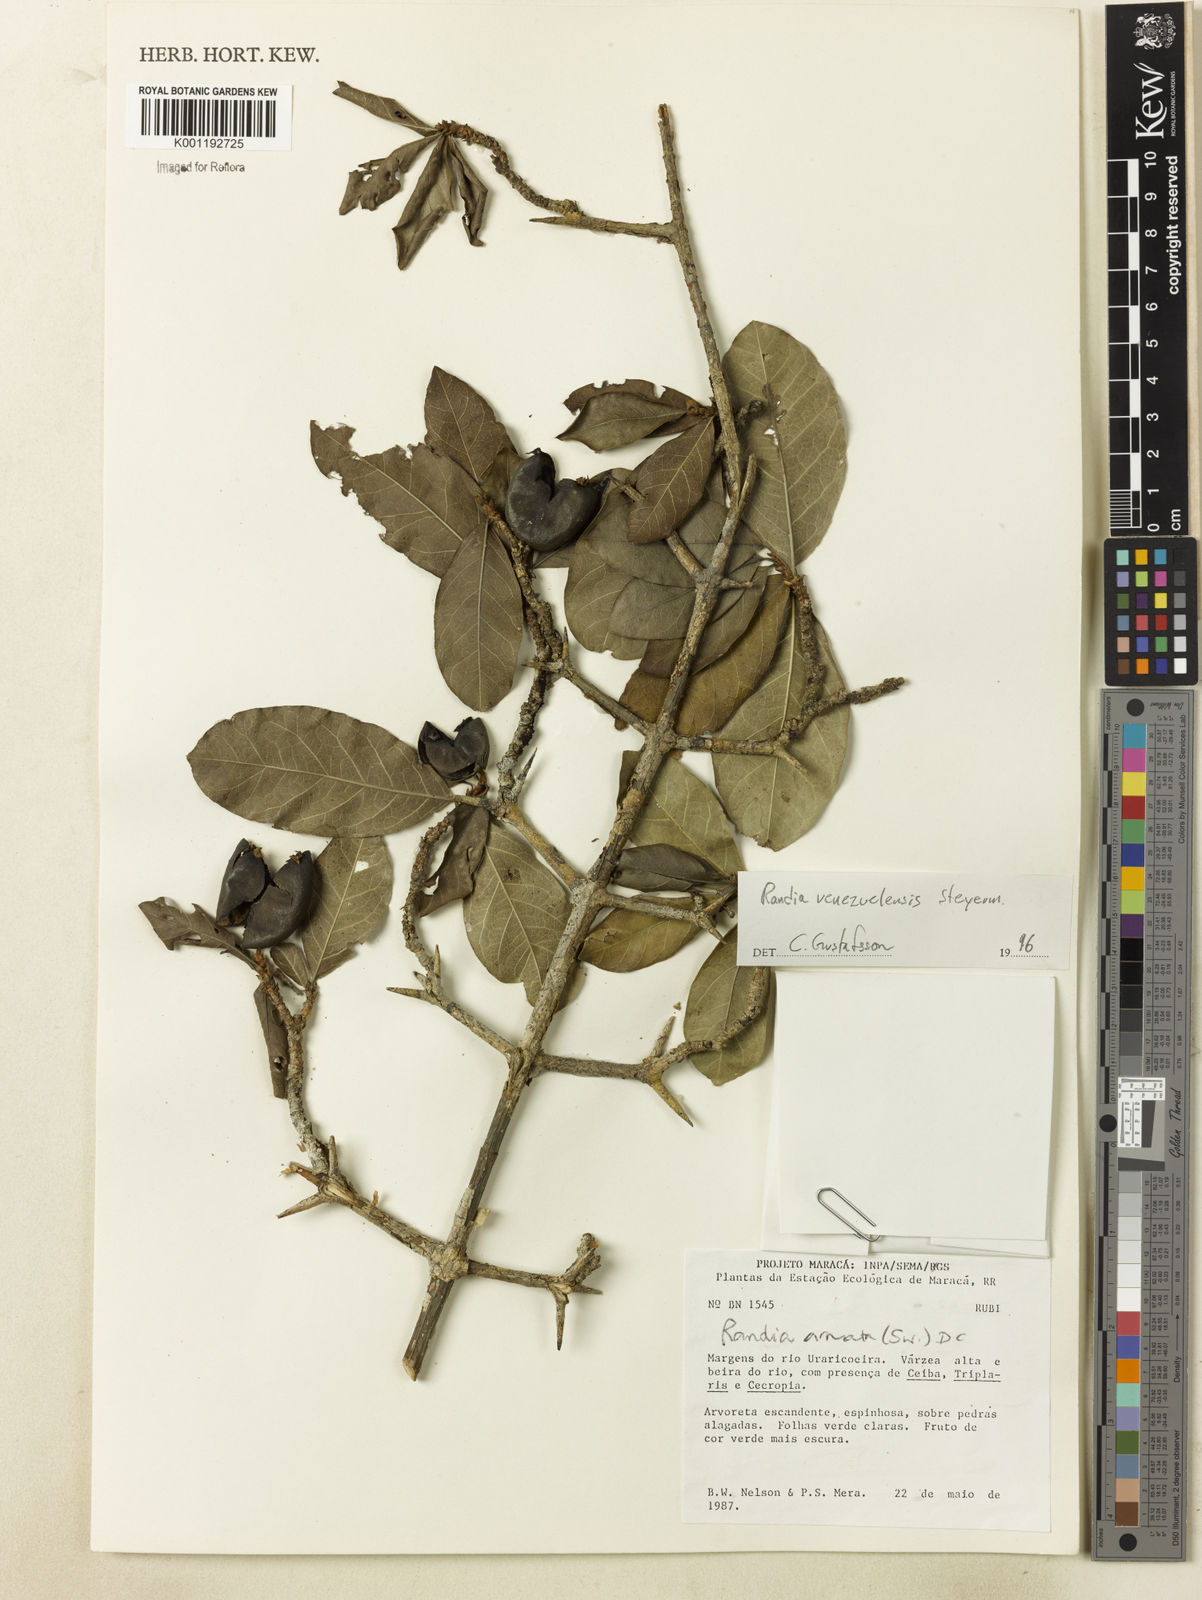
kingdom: Plantae
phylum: Tracheophyta
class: Magnoliopsida
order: Gentianales
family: Rubiaceae
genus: Randia
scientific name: Randia venezuelensis
